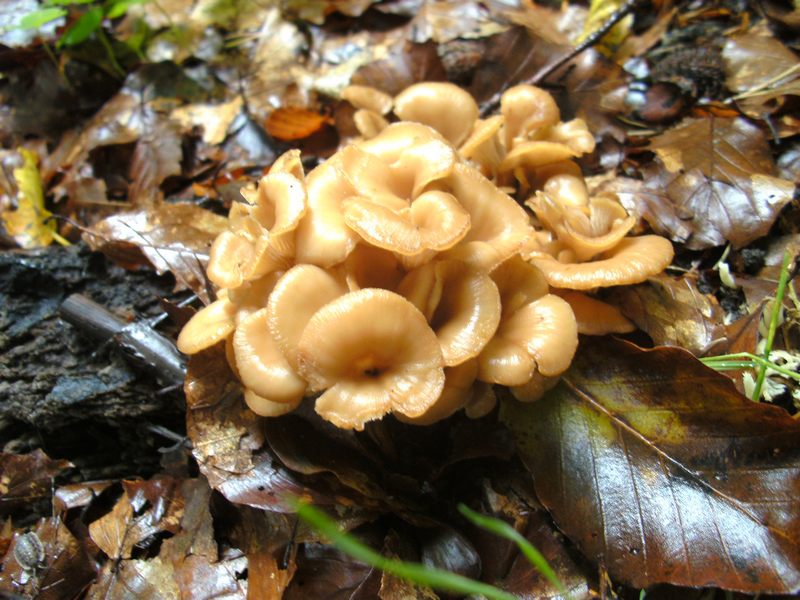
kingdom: Fungi
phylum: Basidiomycota
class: Agaricomycetes
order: Russulales
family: Auriscalpiaceae
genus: Lentinellus
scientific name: Lentinellus cochleatus
